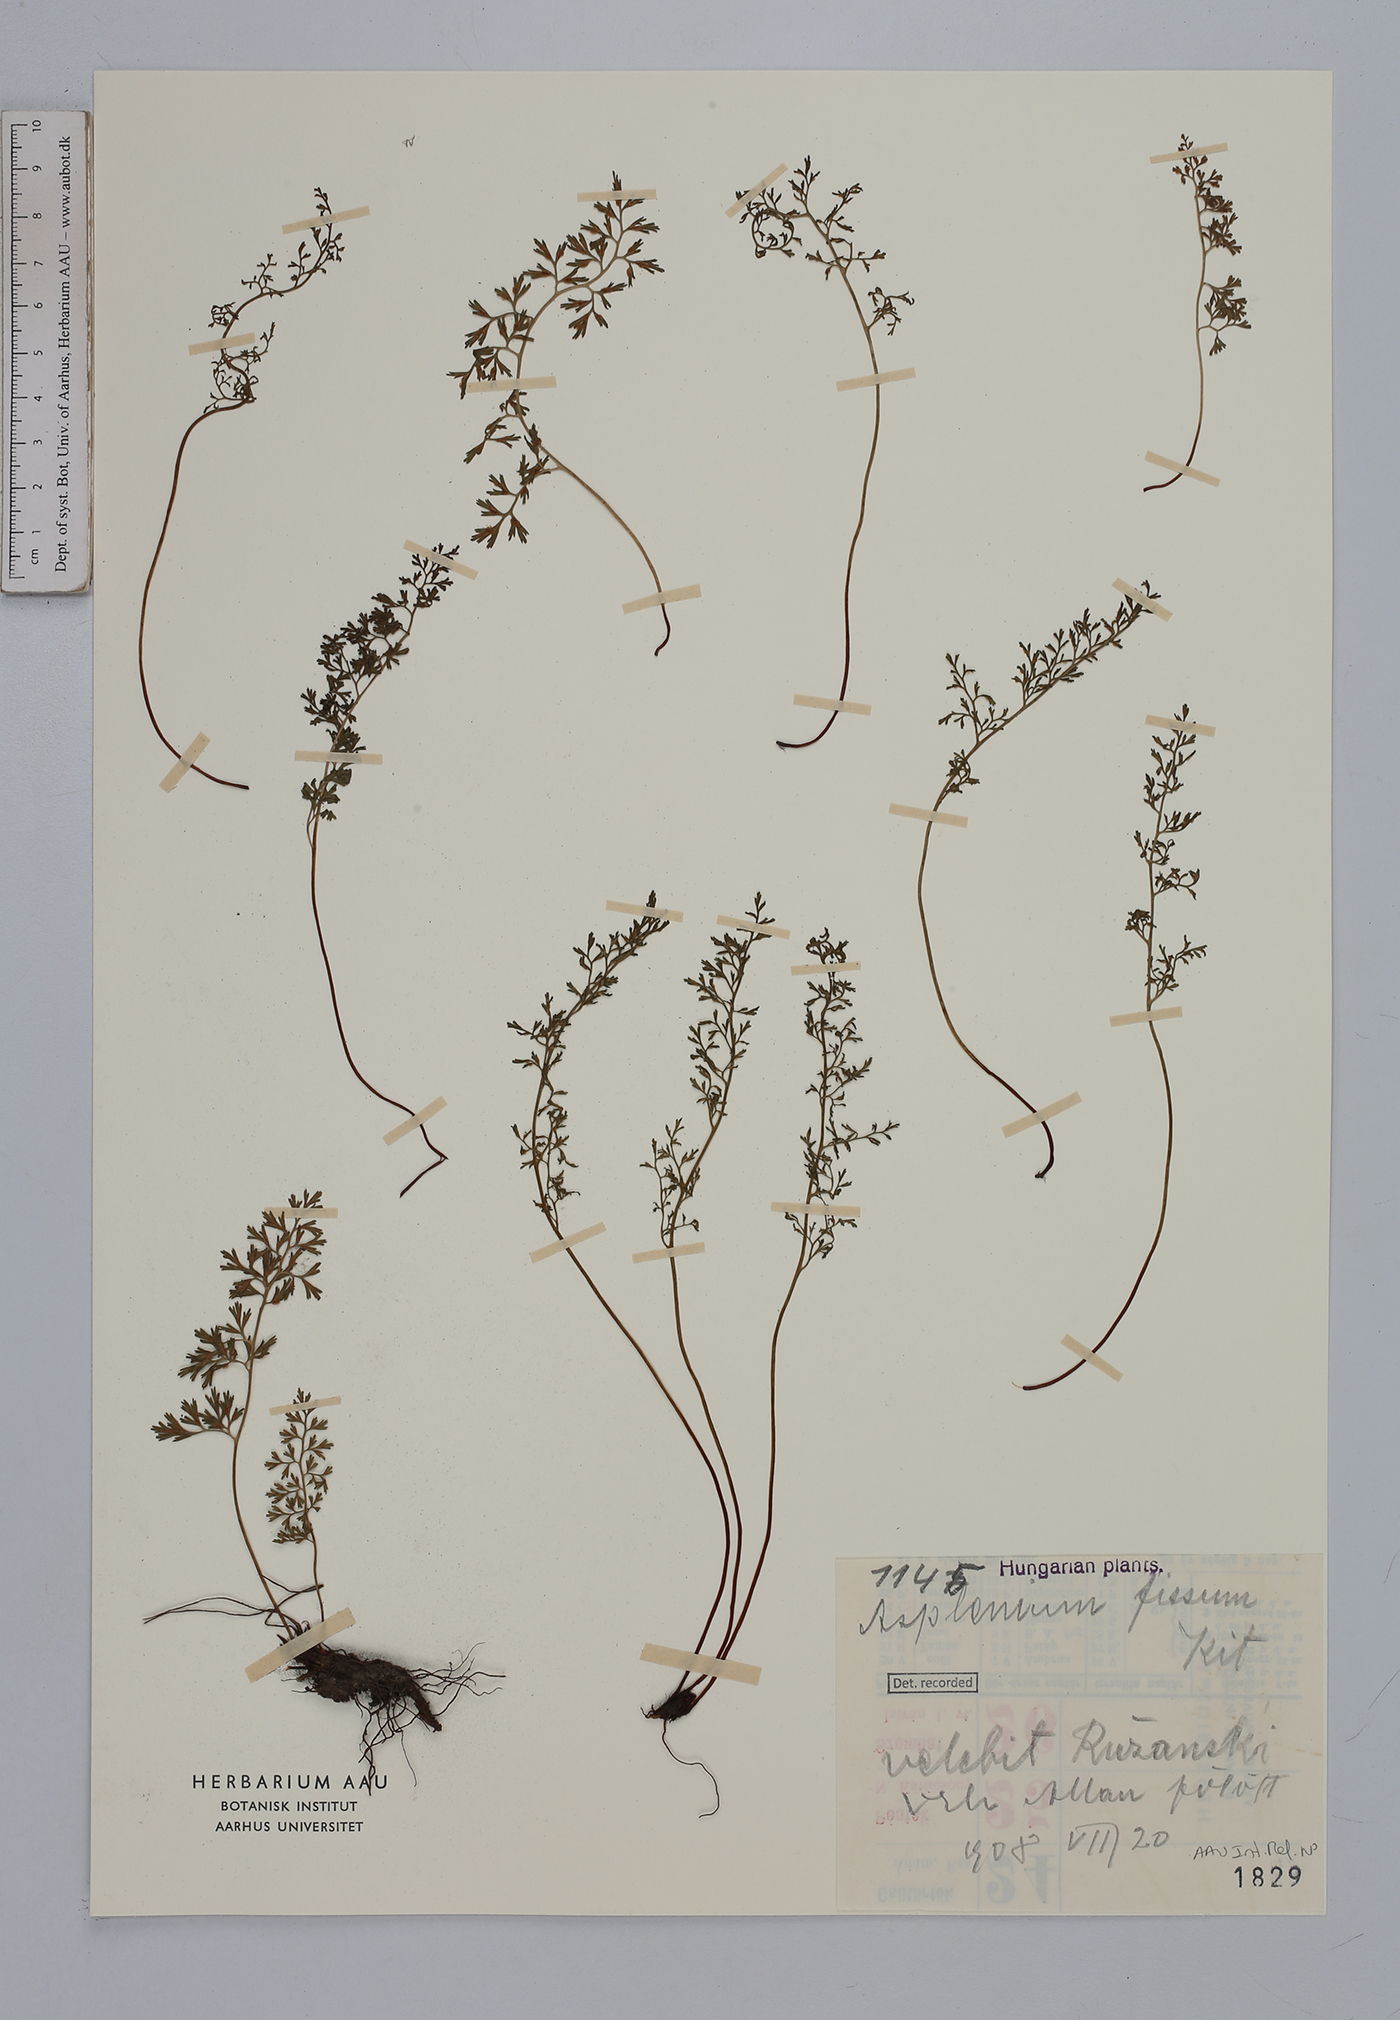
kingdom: Plantae
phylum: Tracheophyta
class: Polypodiopsida
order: Polypodiales
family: Aspleniaceae
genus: Asplenium
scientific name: Asplenium fissum
